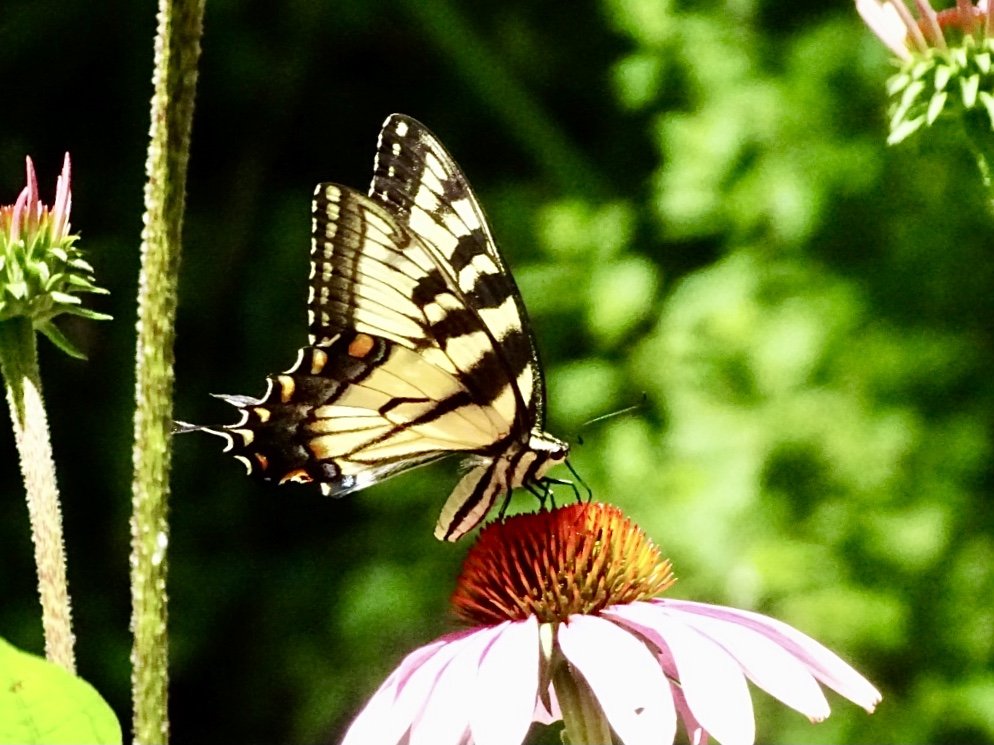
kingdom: Animalia
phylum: Arthropoda
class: Insecta
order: Lepidoptera
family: Papilionidae
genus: Pterourus
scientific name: Pterourus glaucus
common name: Eastern Tiger Swallowtail
